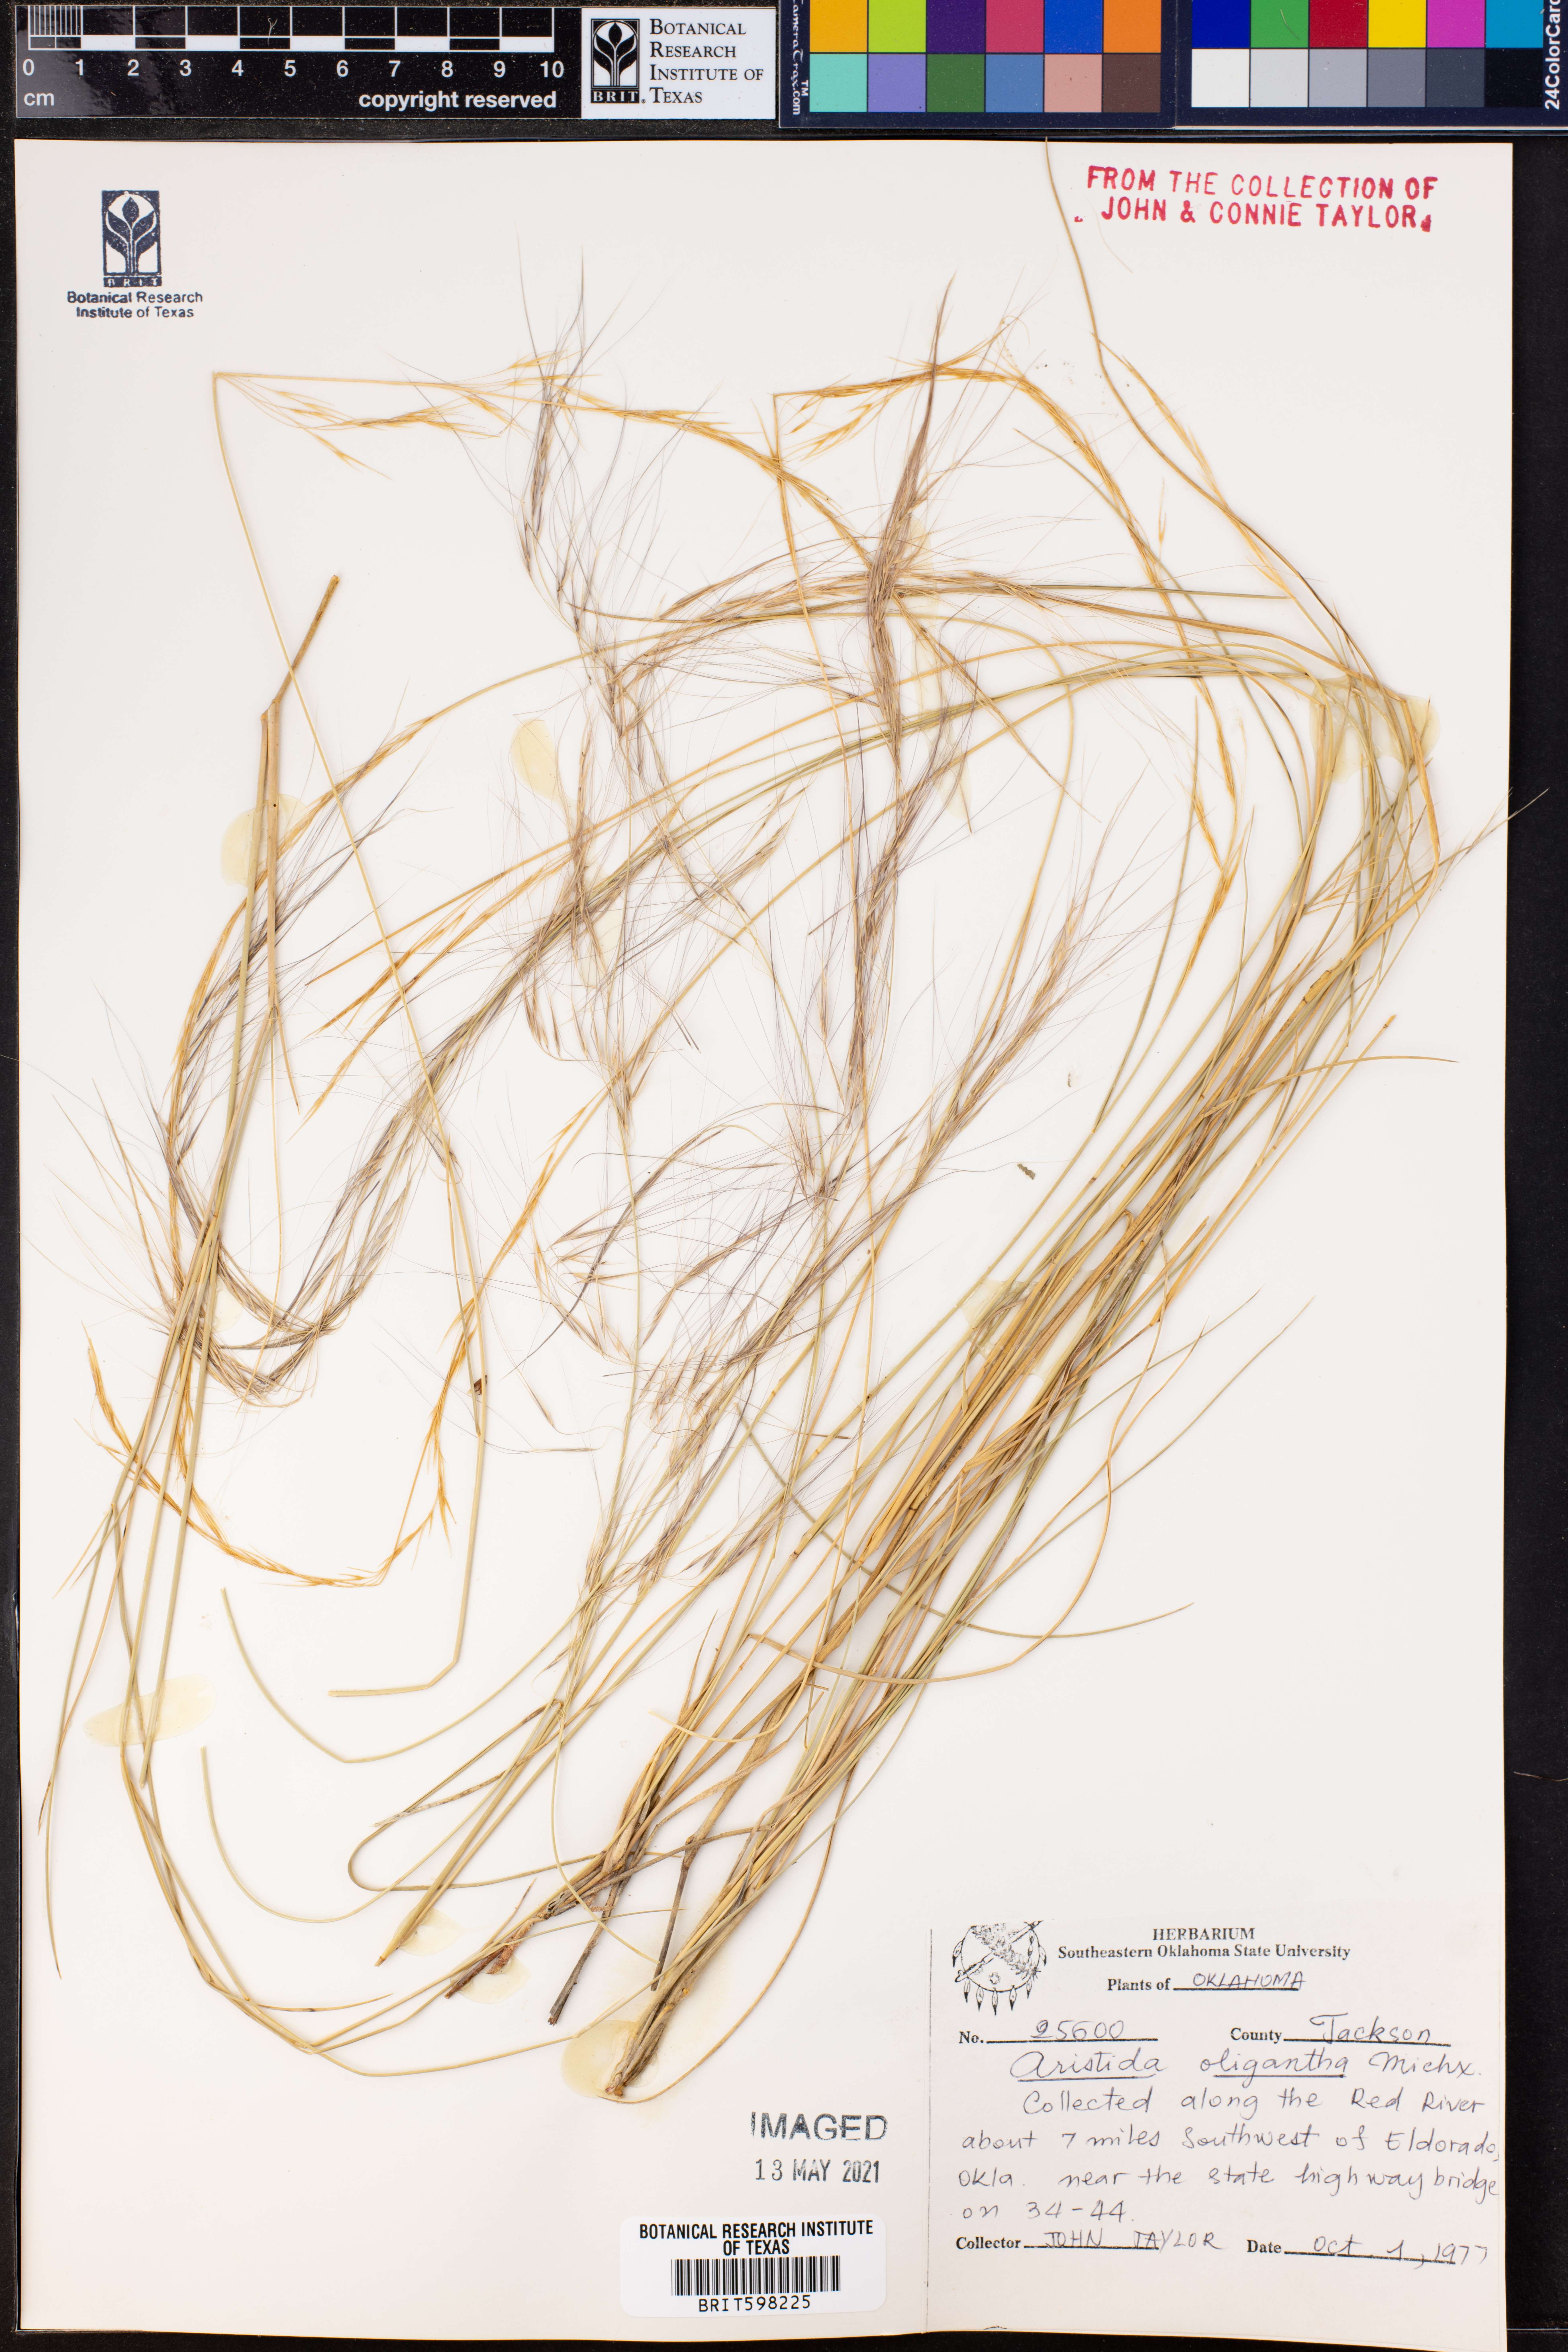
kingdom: Plantae
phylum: Tracheophyta
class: Liliopsida
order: Poales
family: Poaceae
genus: Aristida
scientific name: Aristida oligantha
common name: Few-flowered aristida
